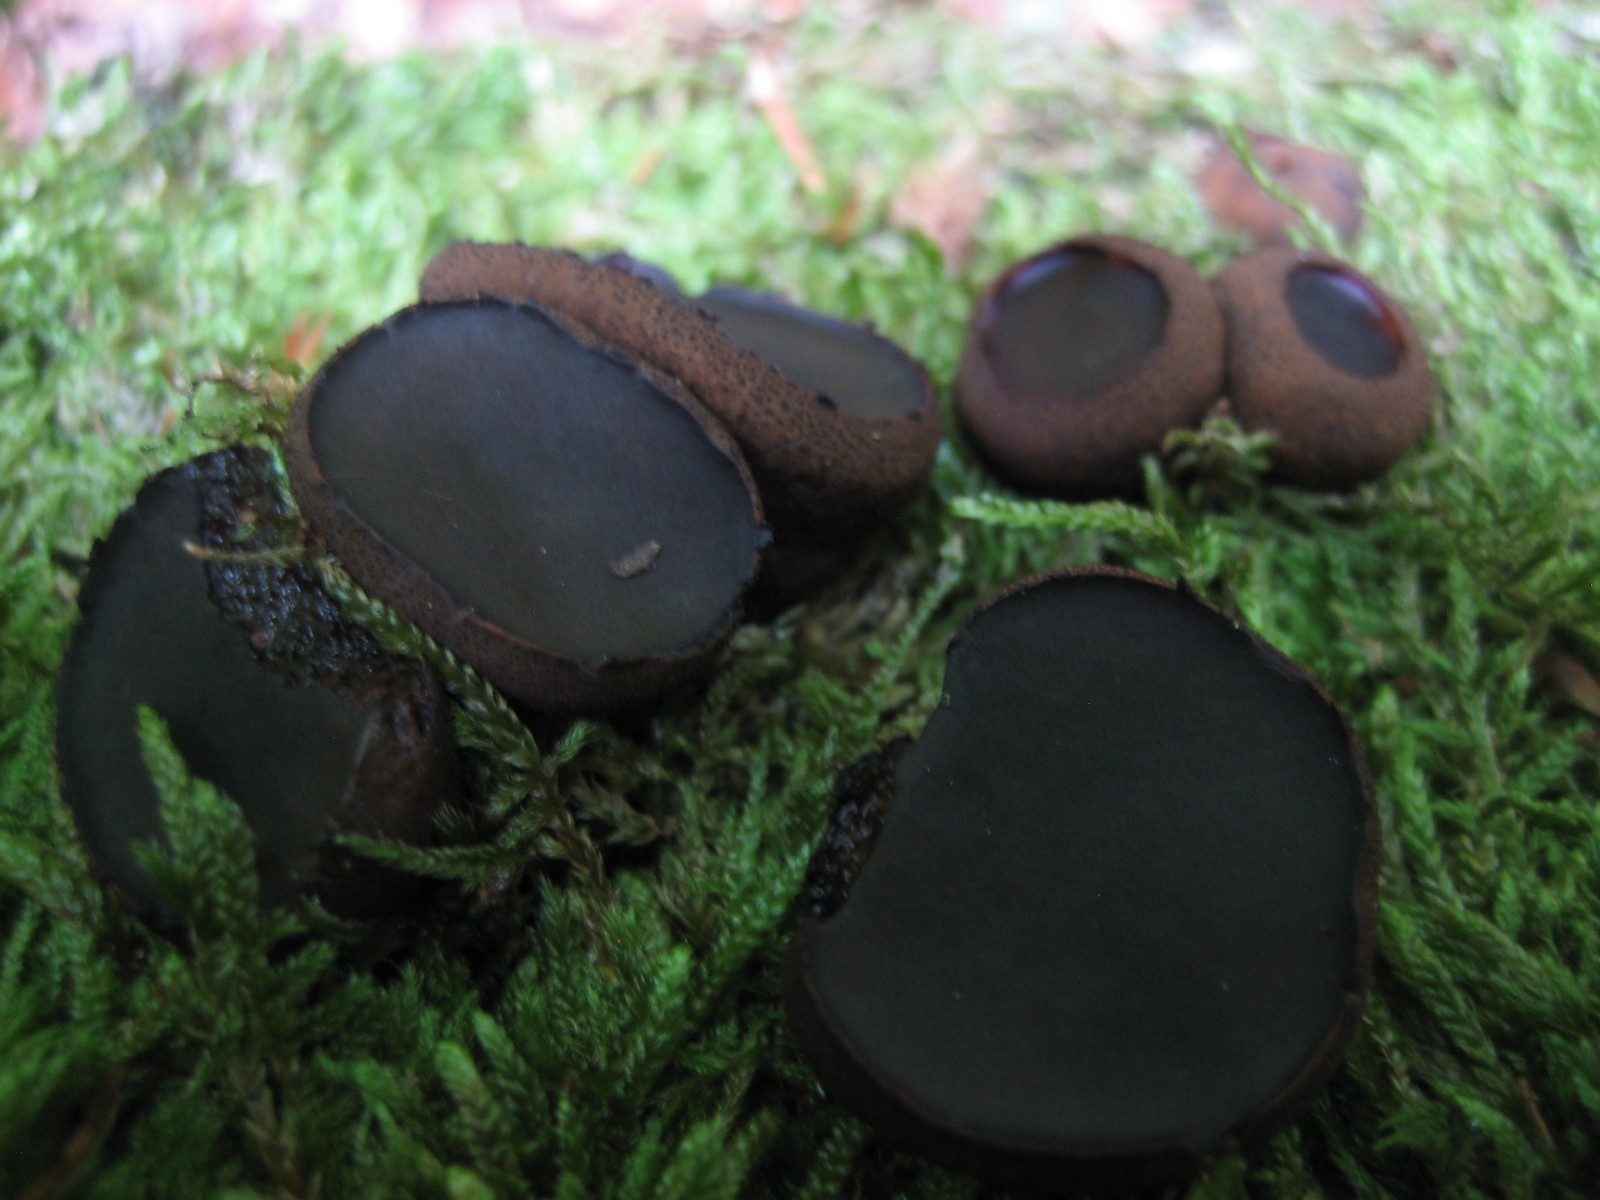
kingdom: Fungi
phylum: Ascomycota
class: Leotiomycetes
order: Phacidiales
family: Phacidiaceae
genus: Bulgaria
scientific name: Bulgaria inquinans
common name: afsmittende topsvamp
